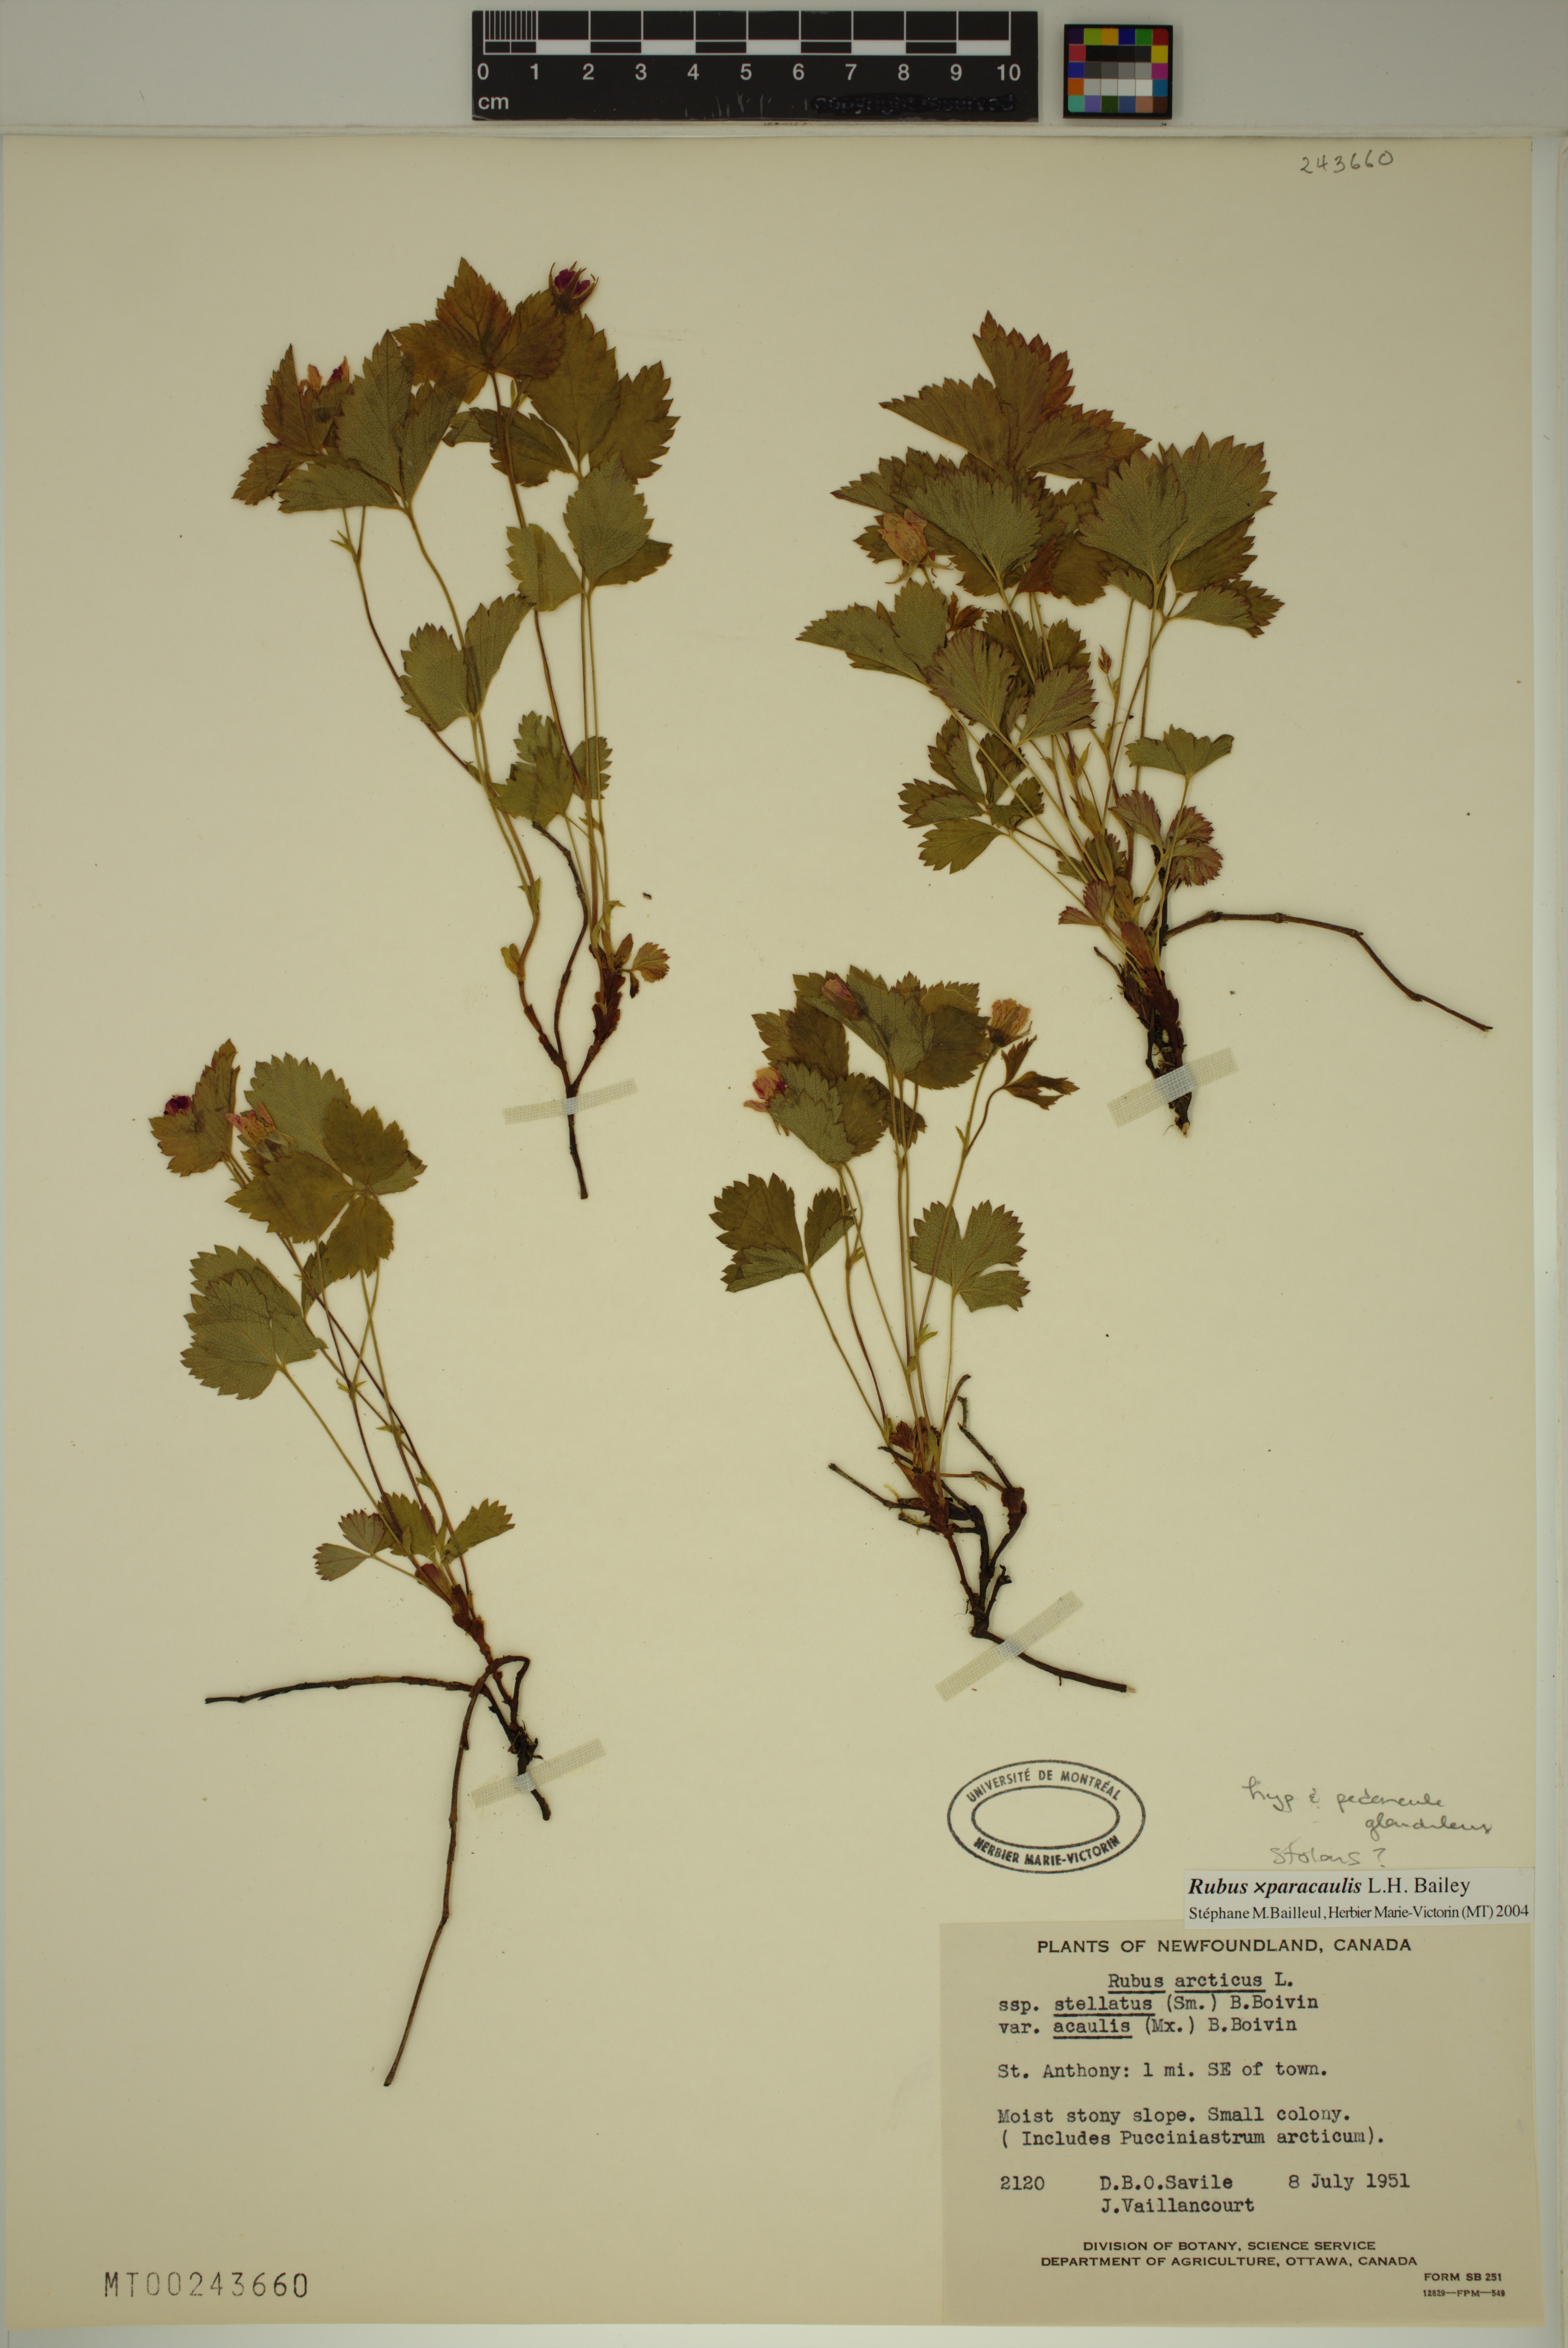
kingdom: Plantae
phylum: Tracheophyta
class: Magnoliopsida
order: Rosales
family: Rosaceae
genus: Rubus
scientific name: Rubus paracaulis
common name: Dwarf white-flowered raspberry
